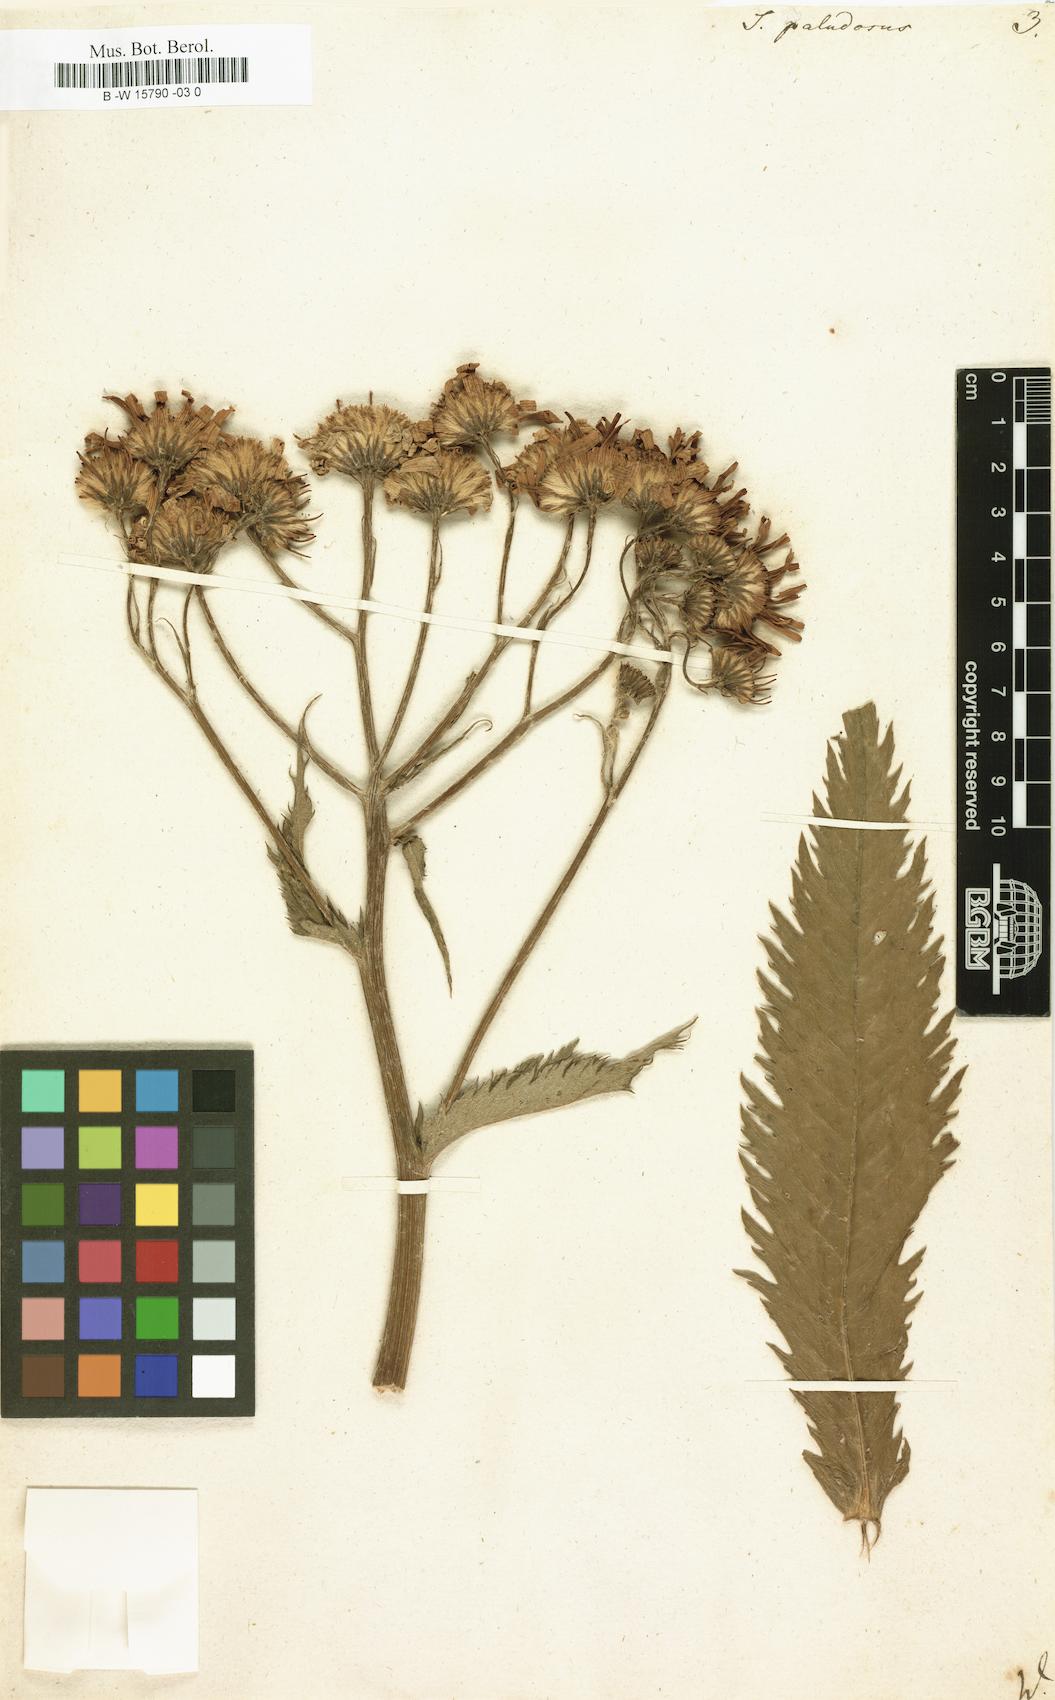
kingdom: Plantae
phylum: Tracheophyta
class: Magnoliopsida
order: Asterales
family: Asteraceae
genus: Jacobaea
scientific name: Jacobaea paludosa
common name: Fen ragwort
